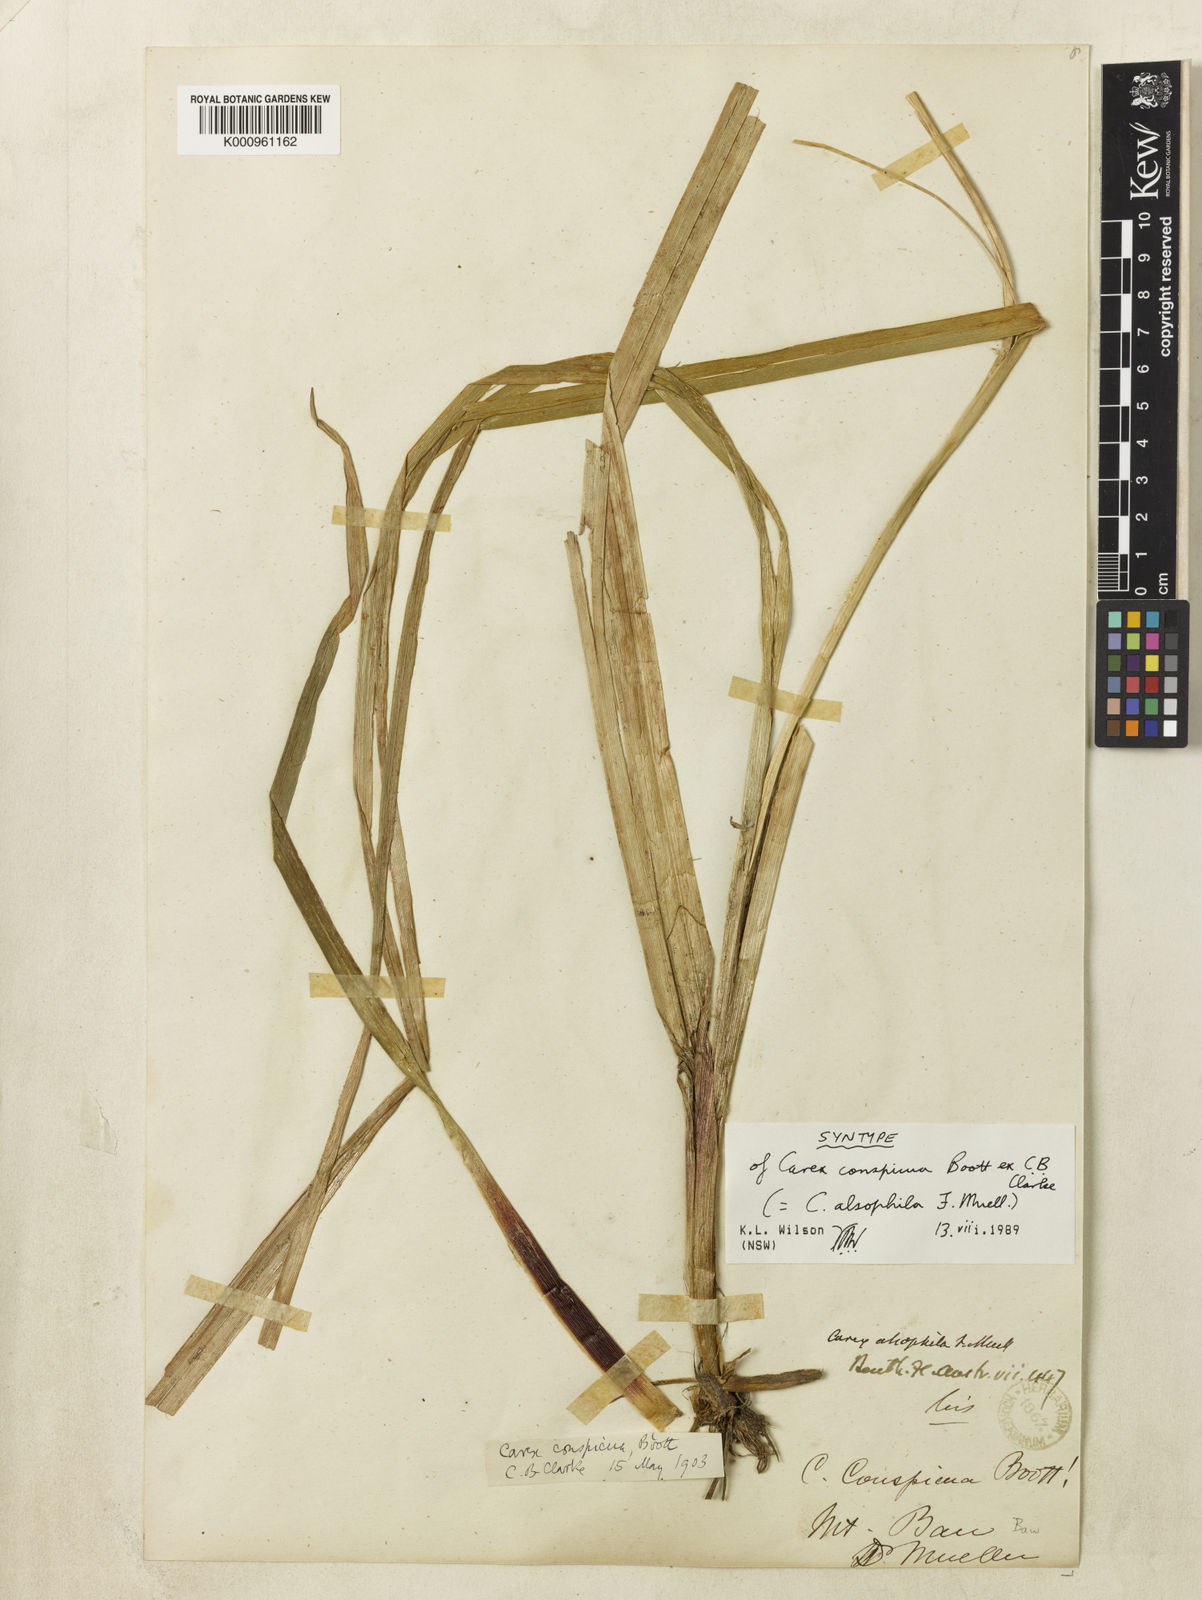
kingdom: Plantae
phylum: Tracheophyta
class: Liliopsida
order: Poales
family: Cyperaceae
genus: Carex
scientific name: Carex alsophila
